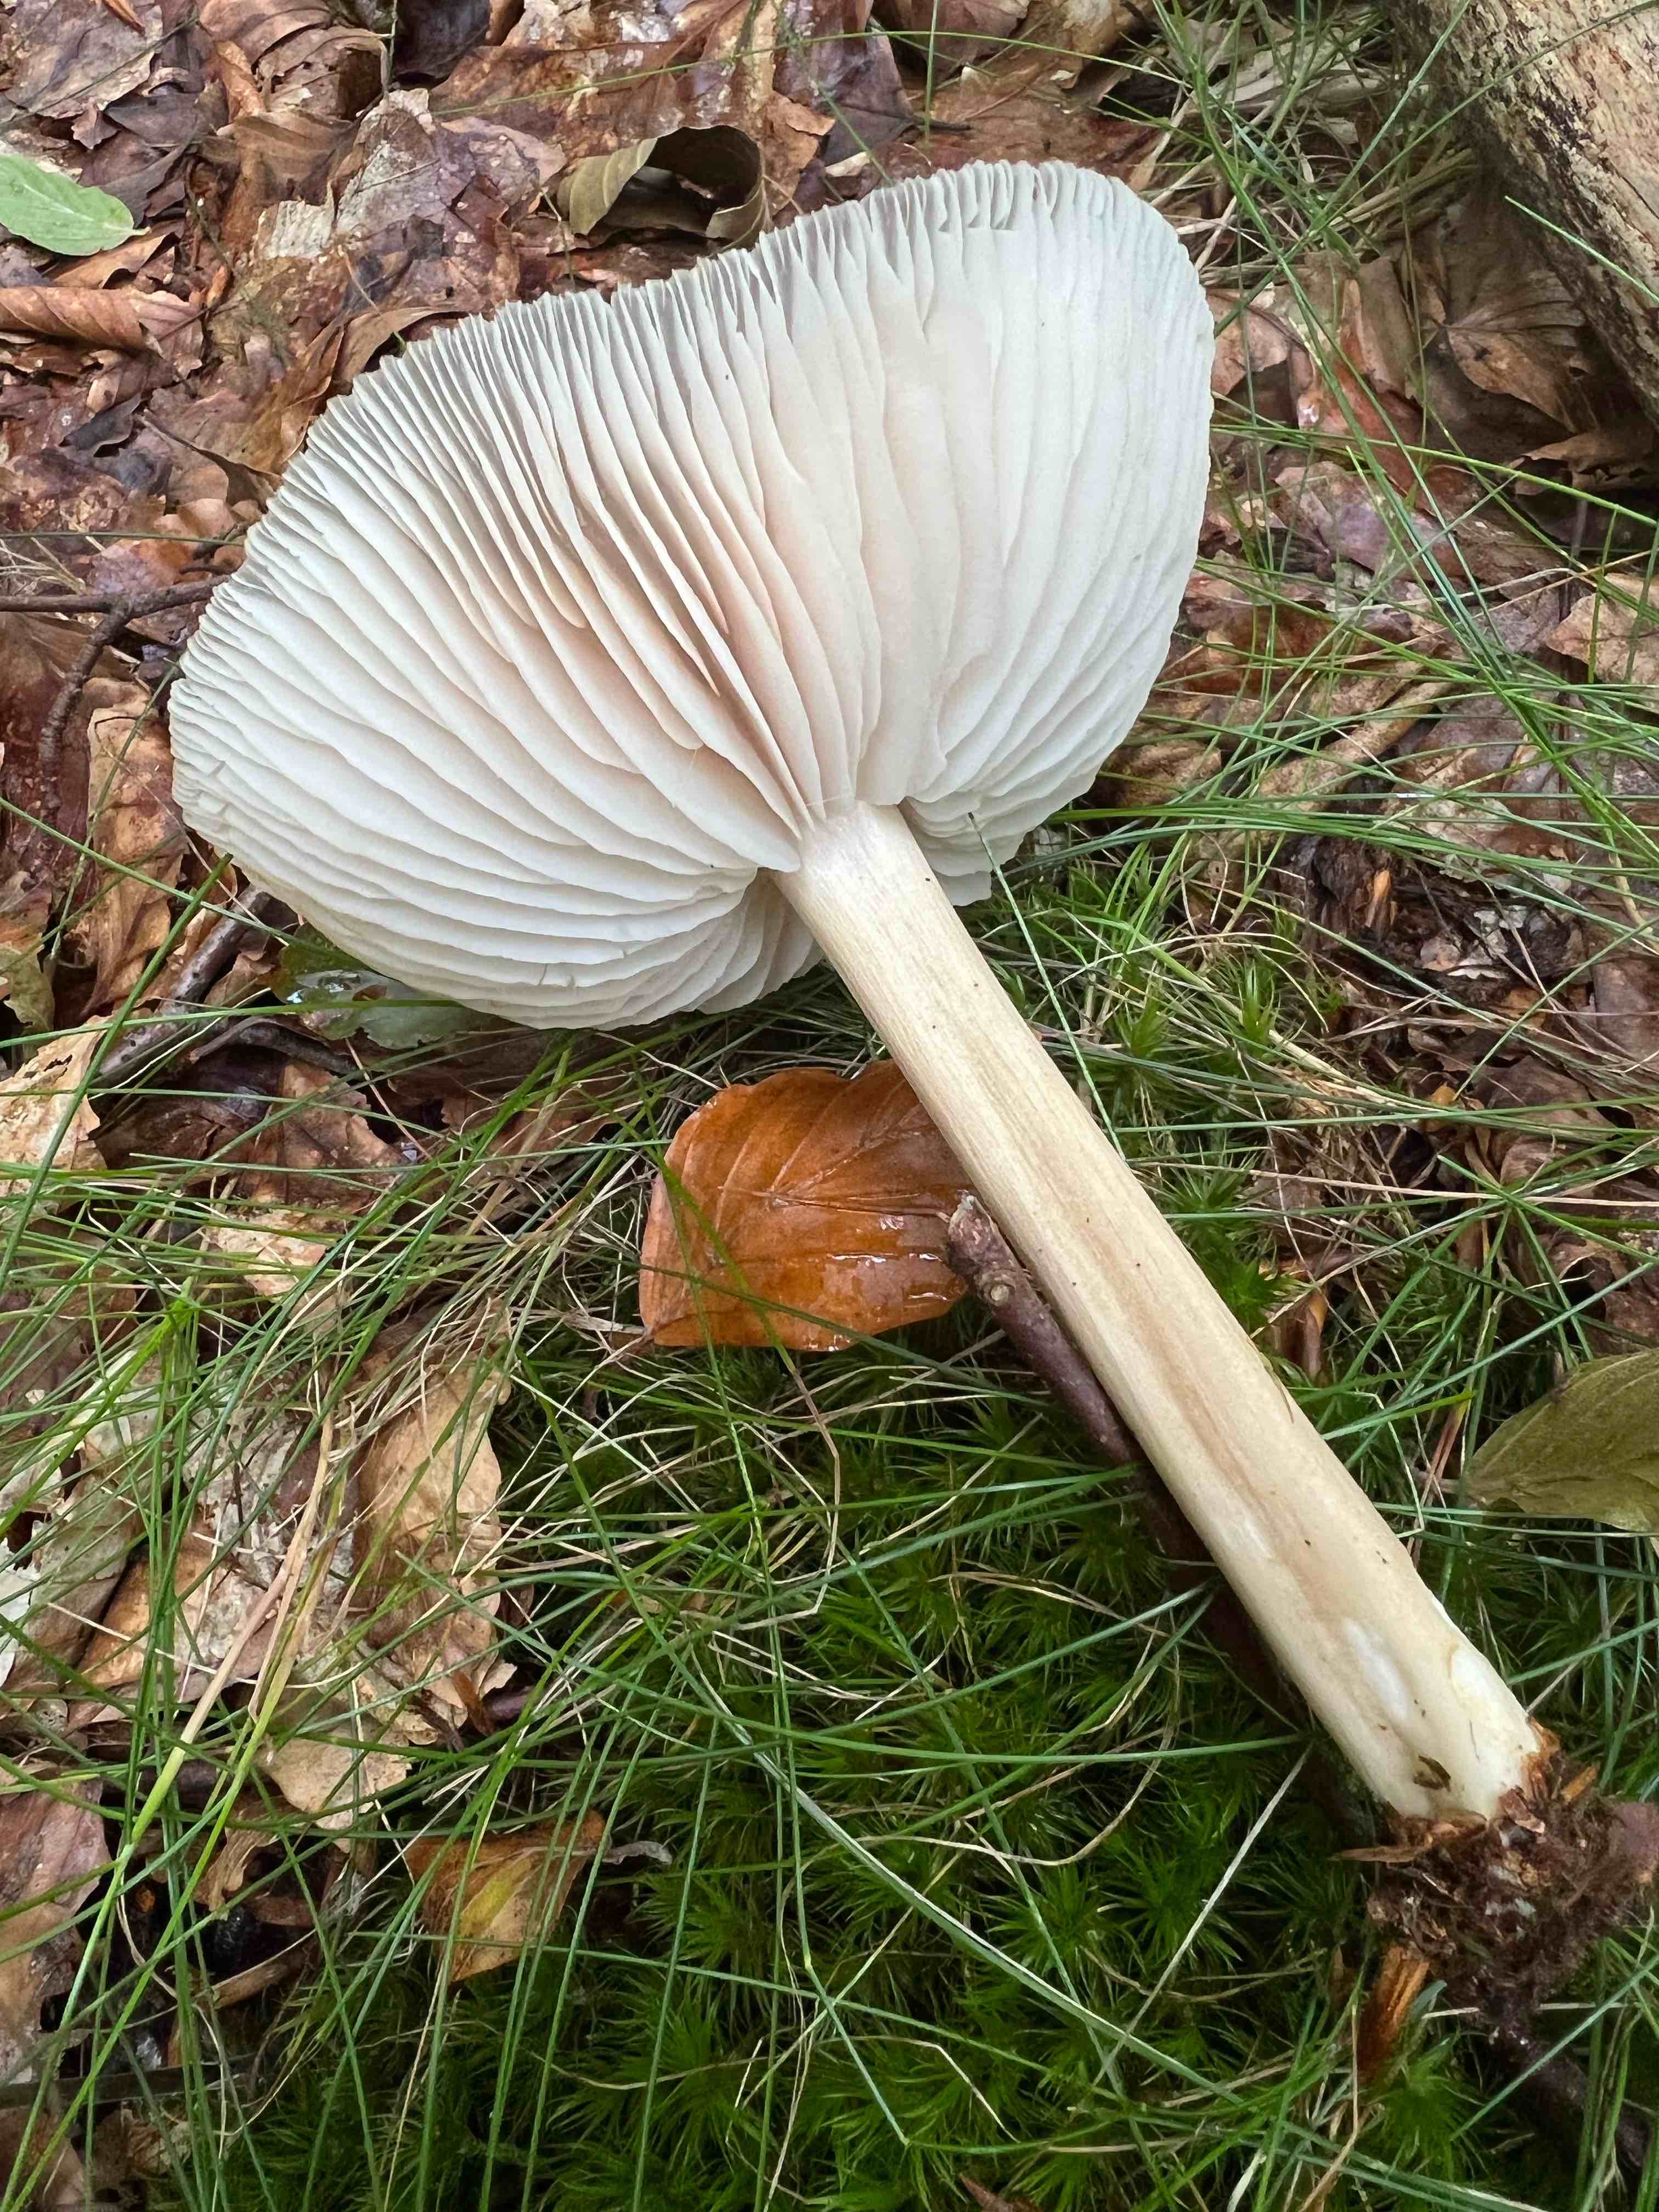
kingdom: Fungi
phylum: Basidiomycota
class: Agaricomycetes
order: Agaricales
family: Tricholomataceae
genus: Megacollybia
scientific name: Megacollybia platyphylla
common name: bredbladet væbnerhat
